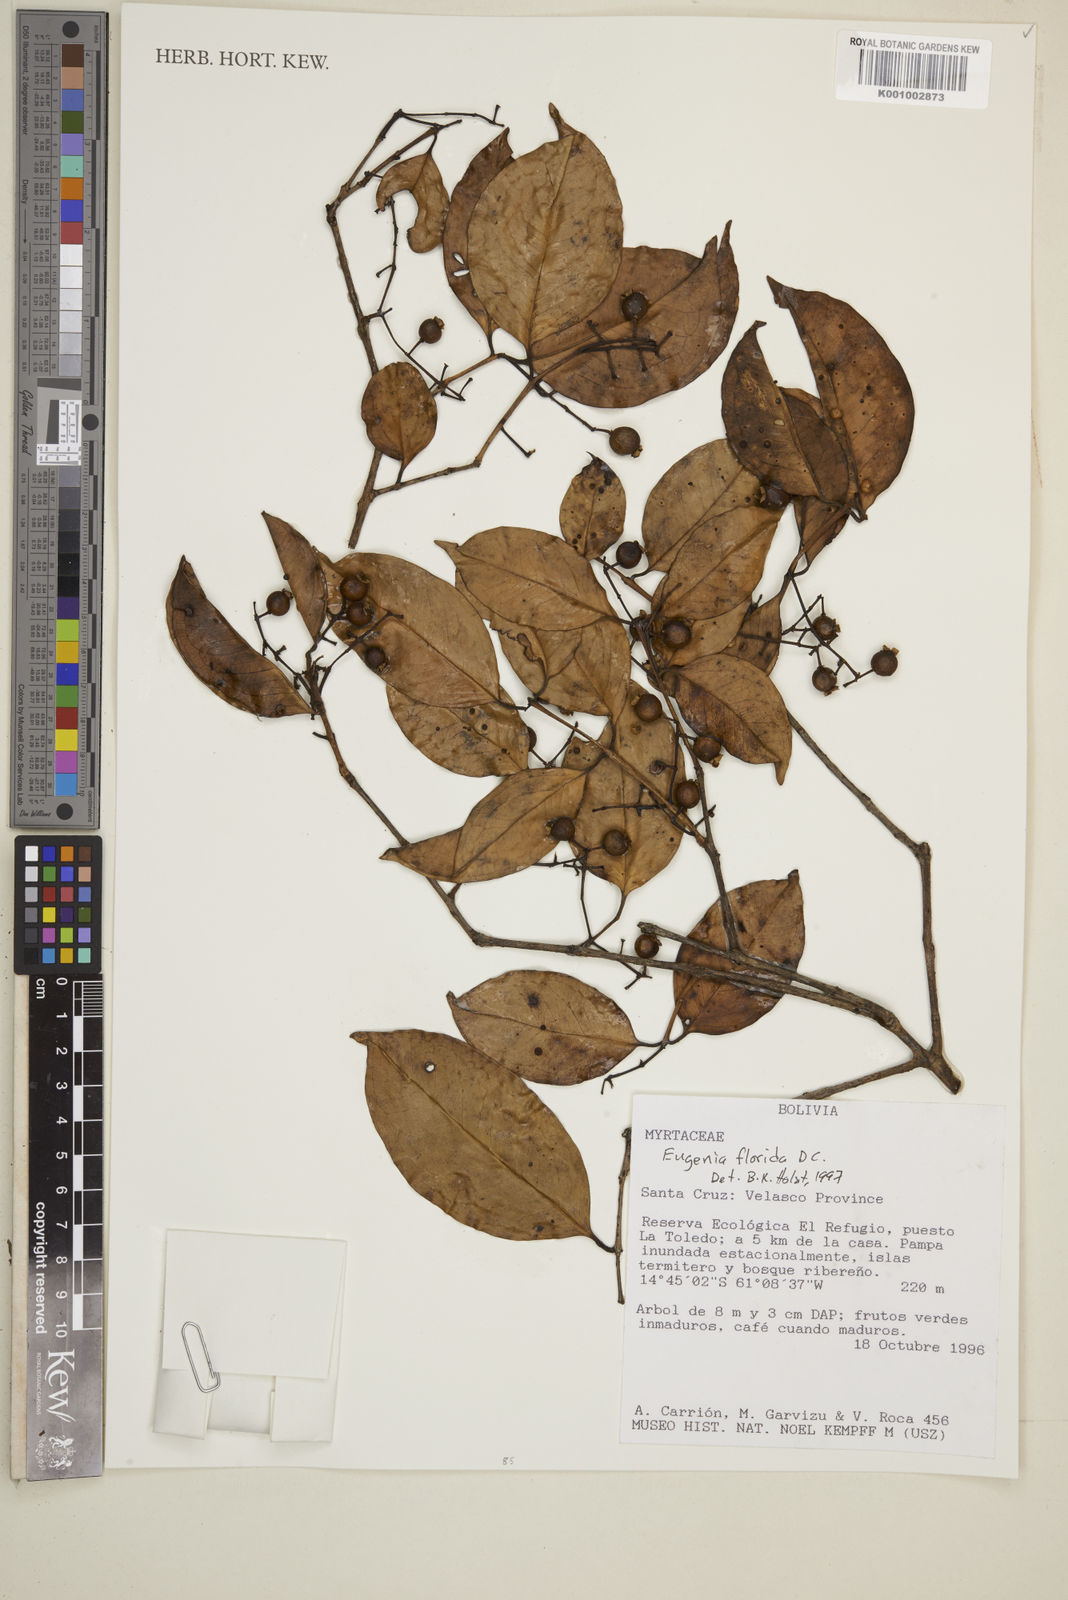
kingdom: Plantae
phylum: Tracheophyta
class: Magnoliopsida
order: Myrtales
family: Myrtaceae
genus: Eugenia
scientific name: Eugenia florida
